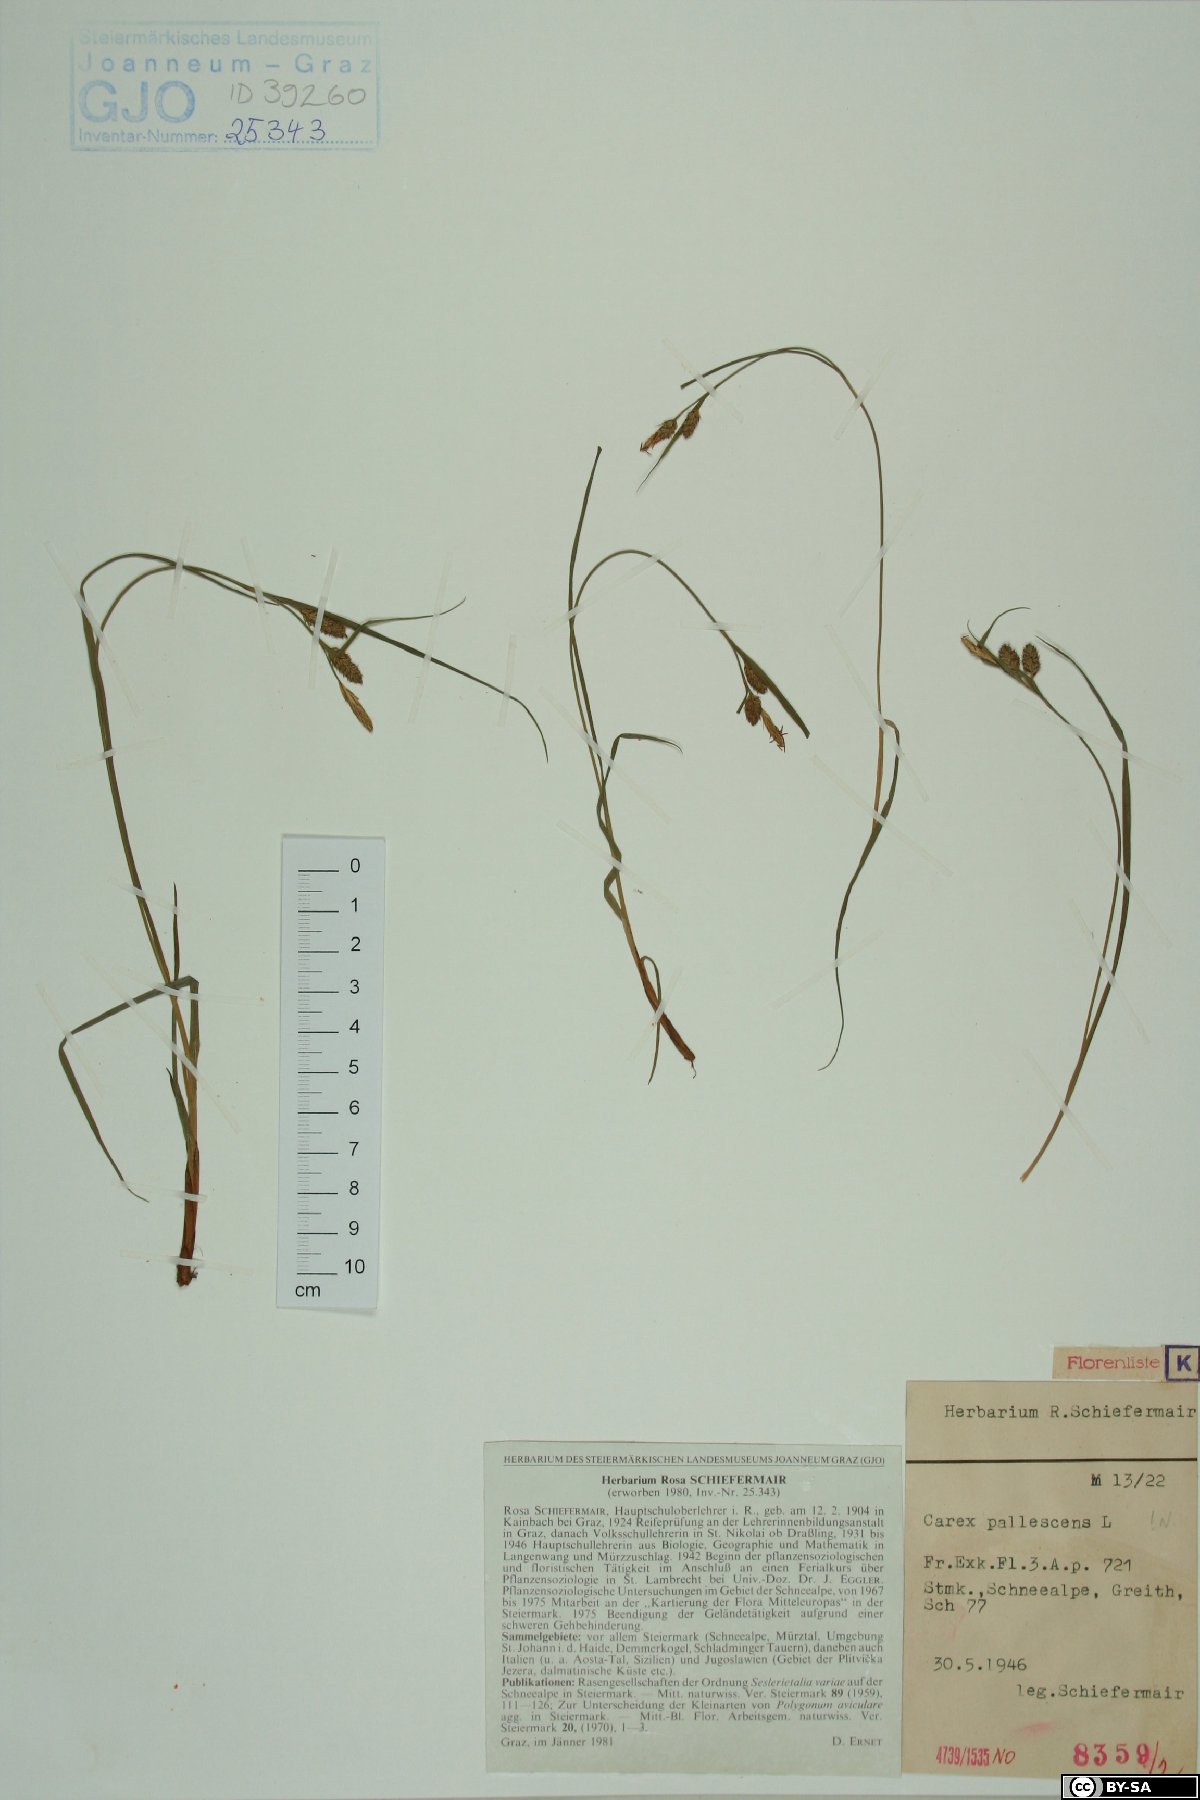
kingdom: Plantae
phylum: Tracheophyta
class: Liliopsida
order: Poales
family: Cyperaceae
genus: Carex
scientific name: Carex pallescens
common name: Pale sedge
